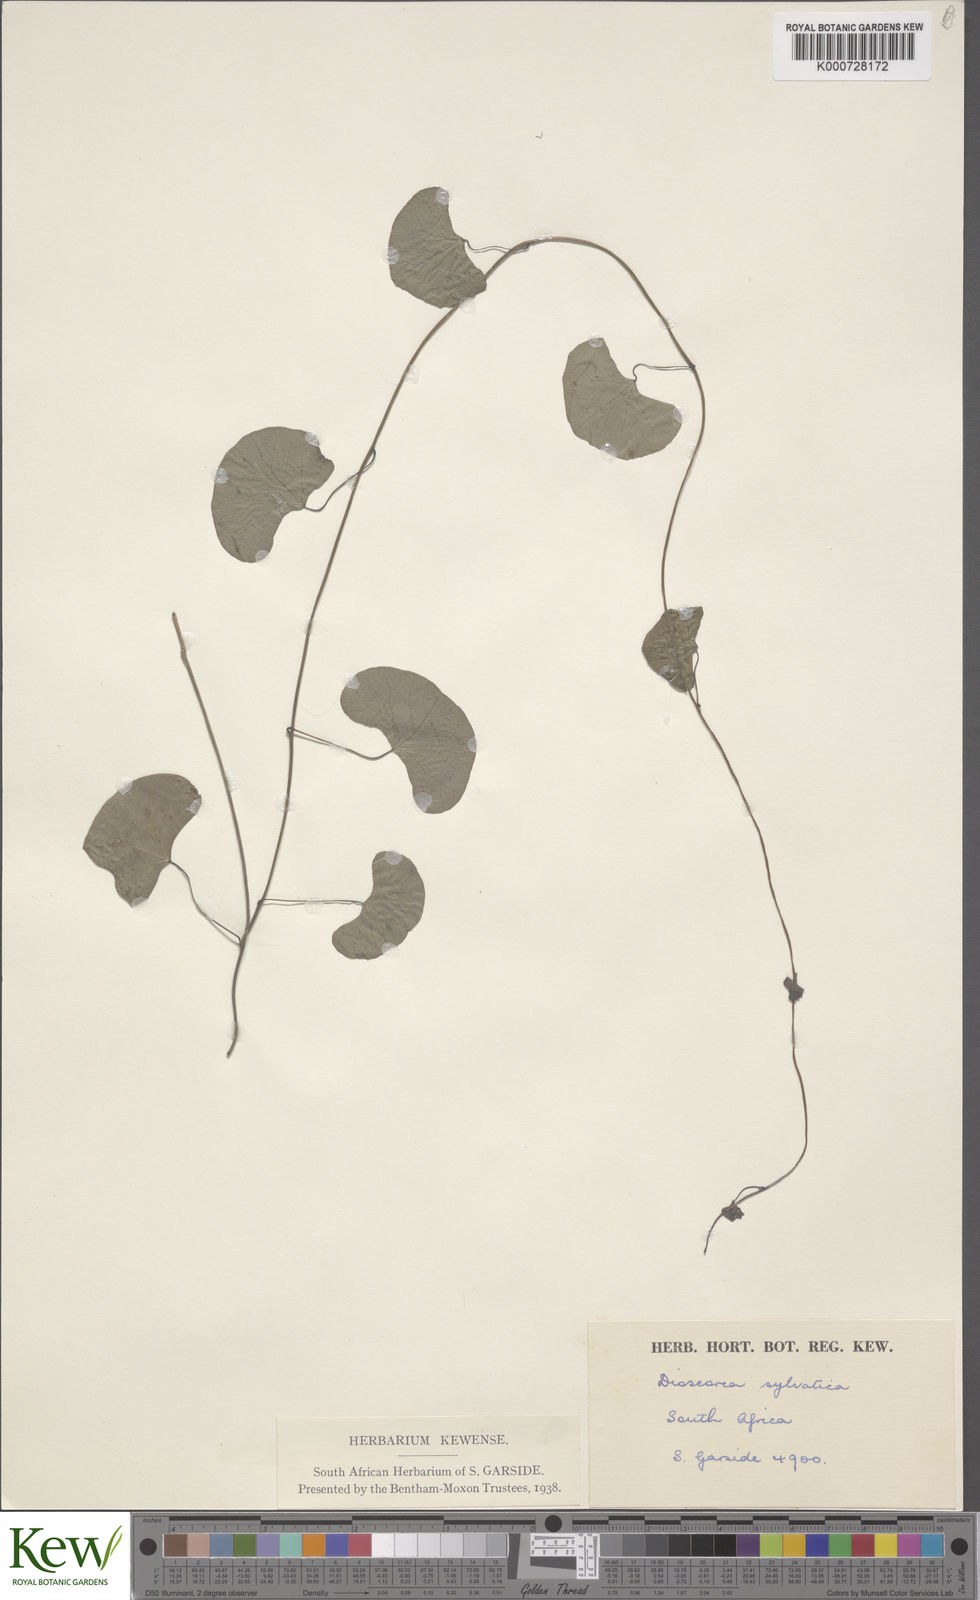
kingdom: Plantae
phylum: Tracheophyta
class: Liliopsida
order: Dioscoreales
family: Dioscoreaceae
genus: Dioscorea
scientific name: Dioscorea sylvatica
